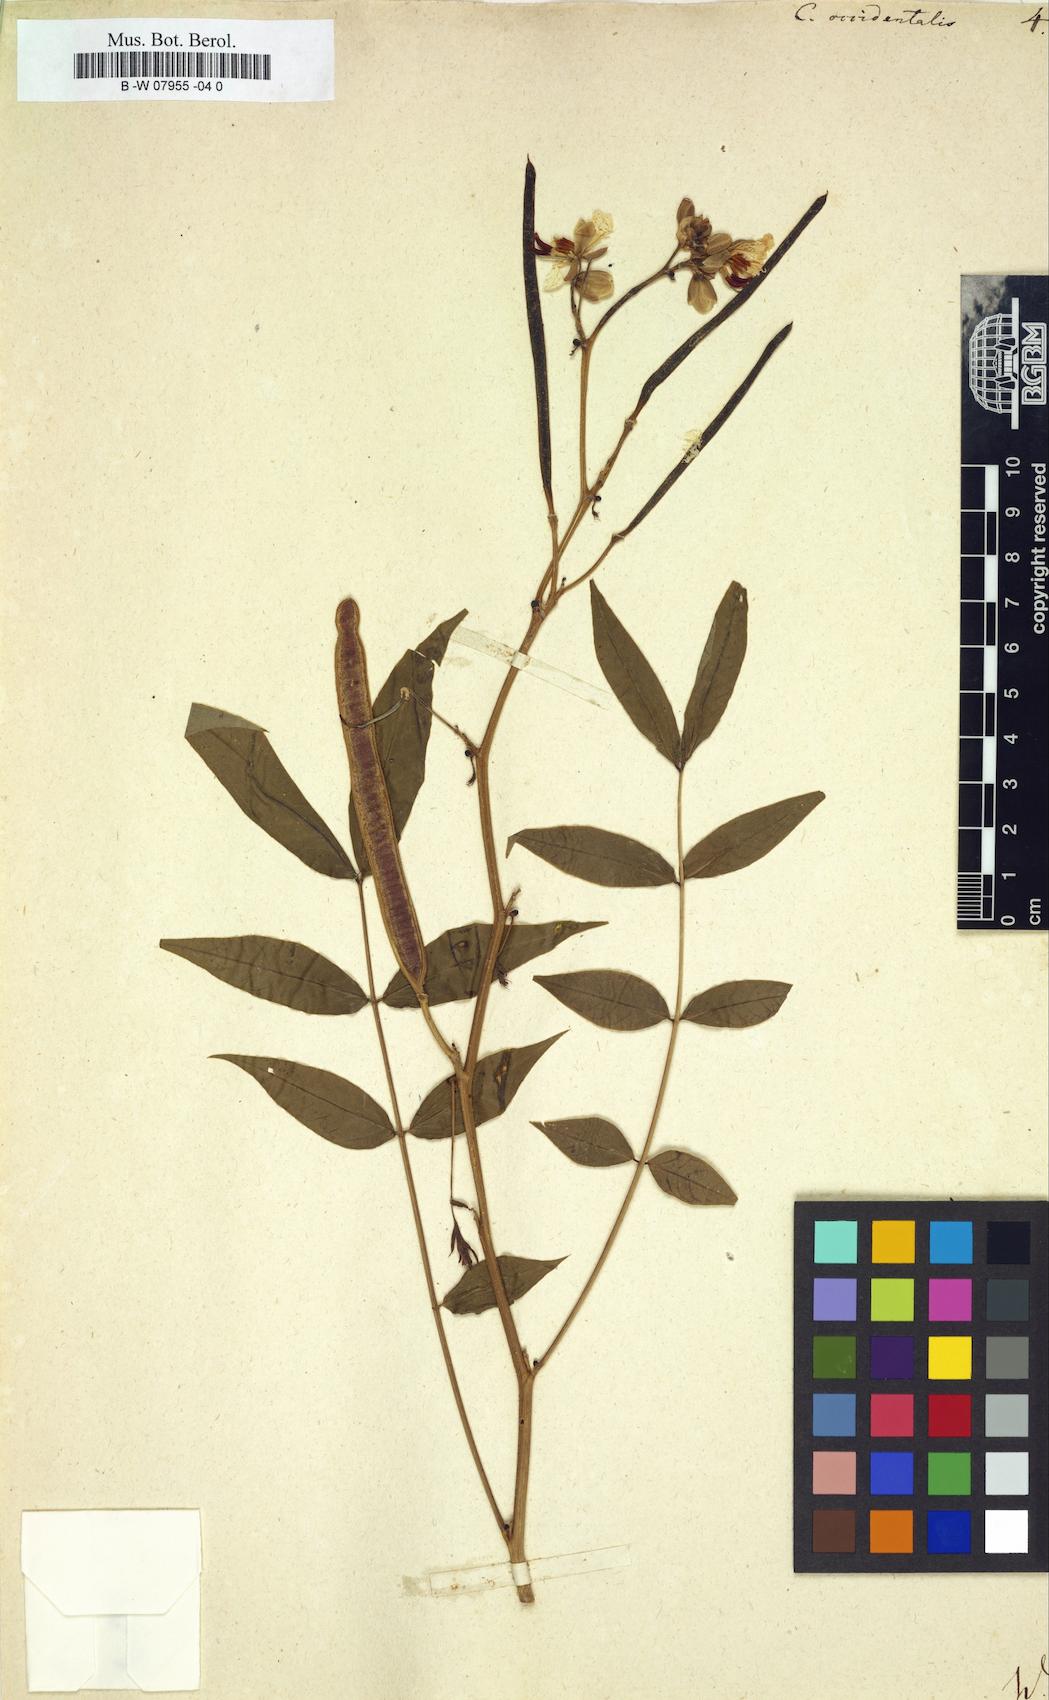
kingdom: Plantae
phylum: Tracheophyta
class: Magnoliopsida
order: Fabales
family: Fabaceae
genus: Senna
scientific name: Senna occidentalis
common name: Septicweed
